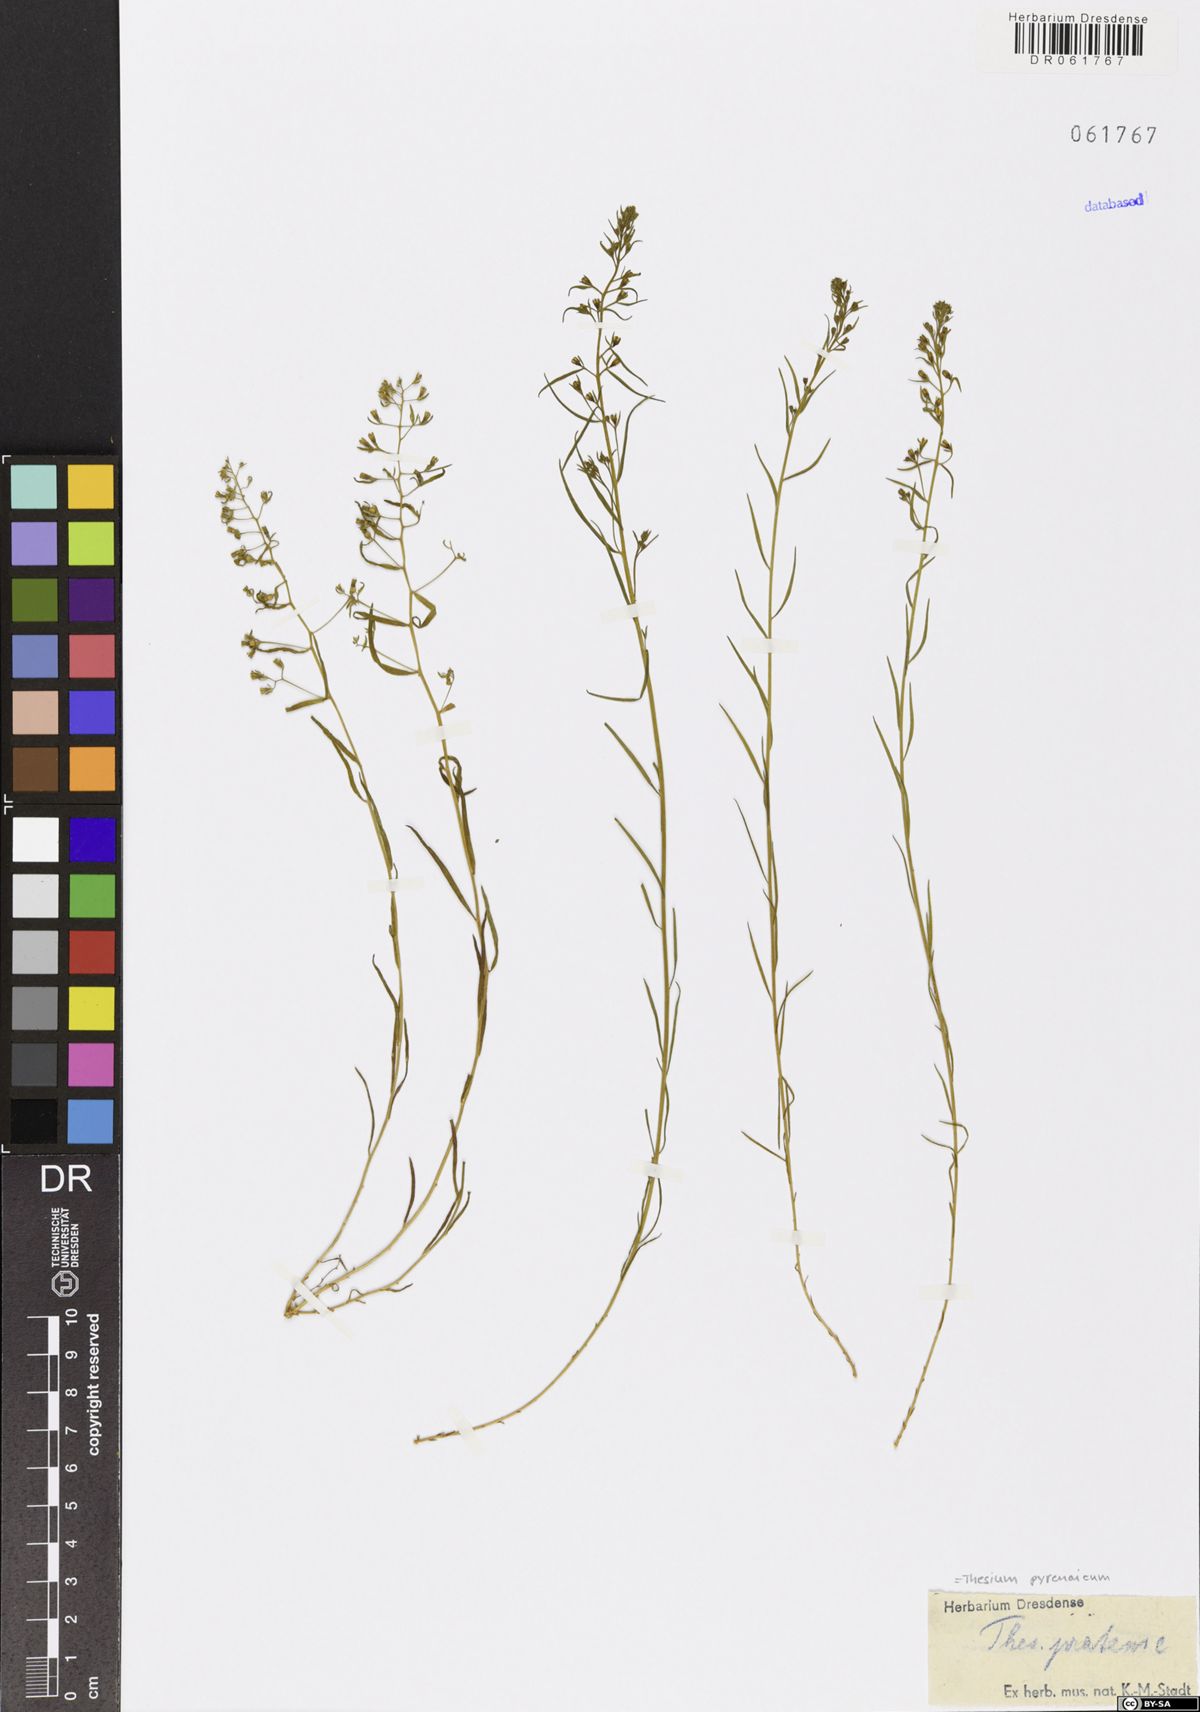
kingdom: Plantae
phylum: Tracheophyta
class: Magnoliopsida
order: Santalales
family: Thesiaceae
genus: Thesium
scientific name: Thesium pyrenaicum
